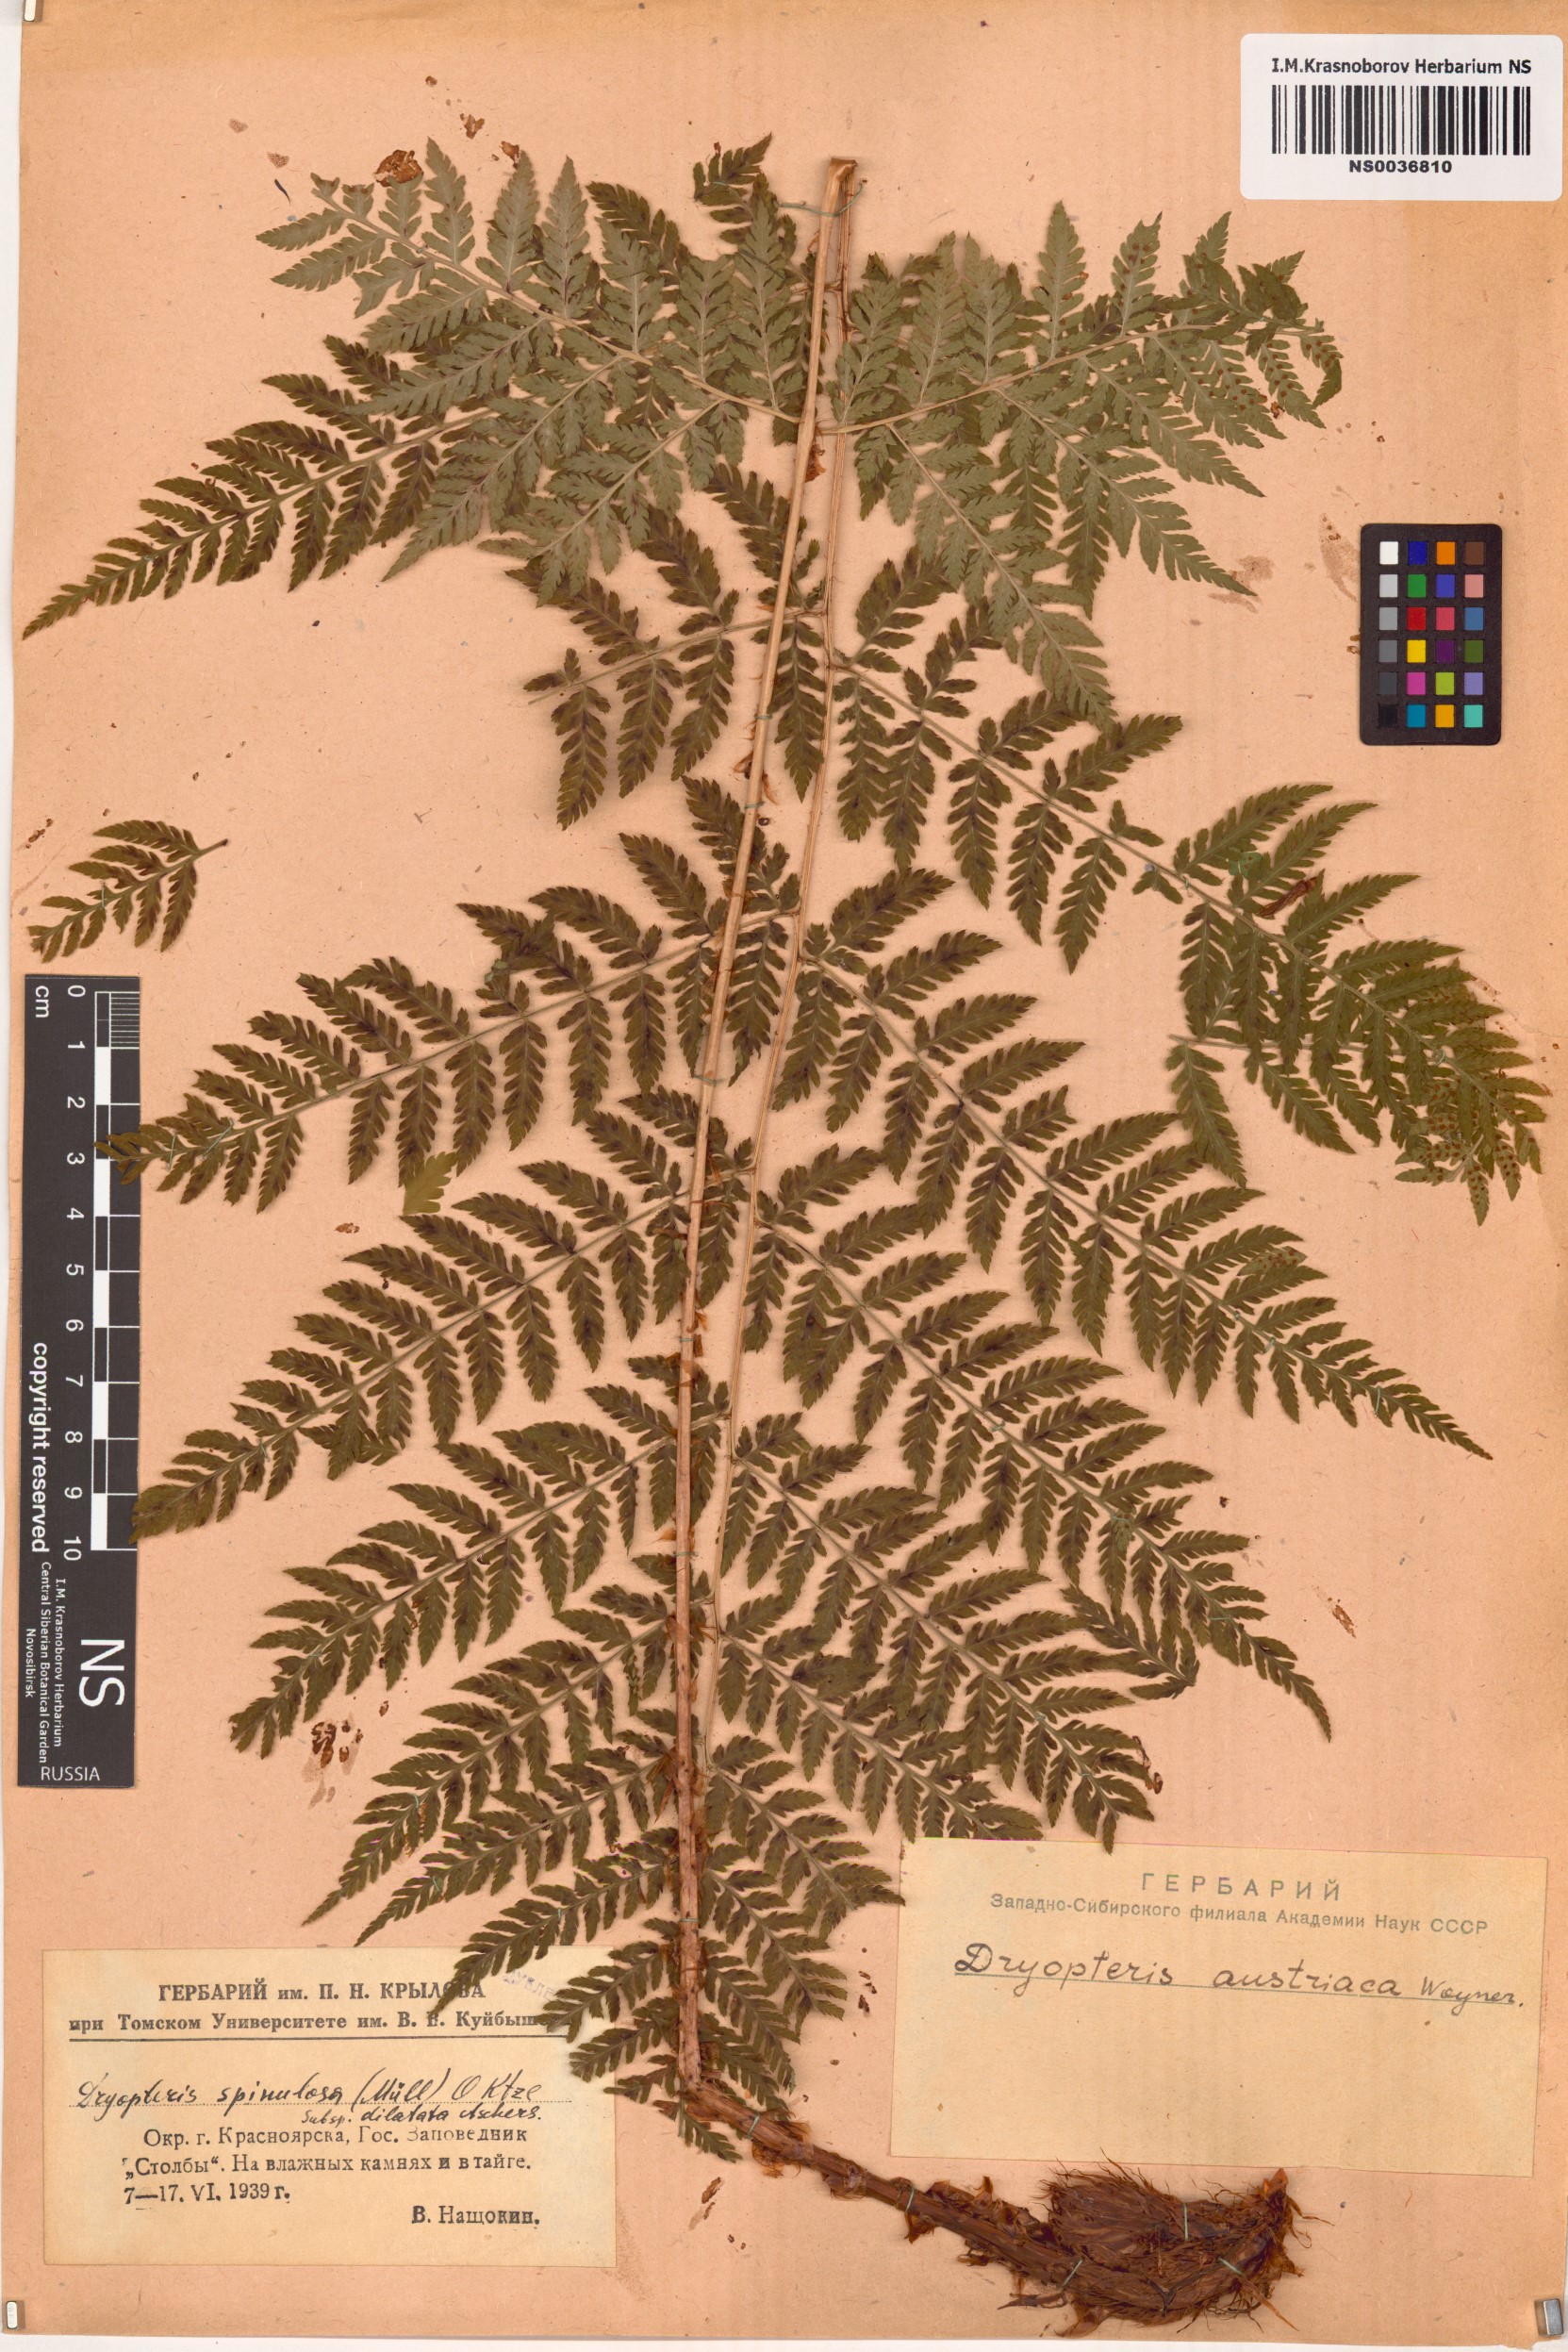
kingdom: Plantae
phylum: Tracheophyta
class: Polypodiopsida
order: Polypodiales
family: Dryopteridaceae
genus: Dryopteris
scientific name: Dryopteris dilatata
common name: Broad buckler-fern
